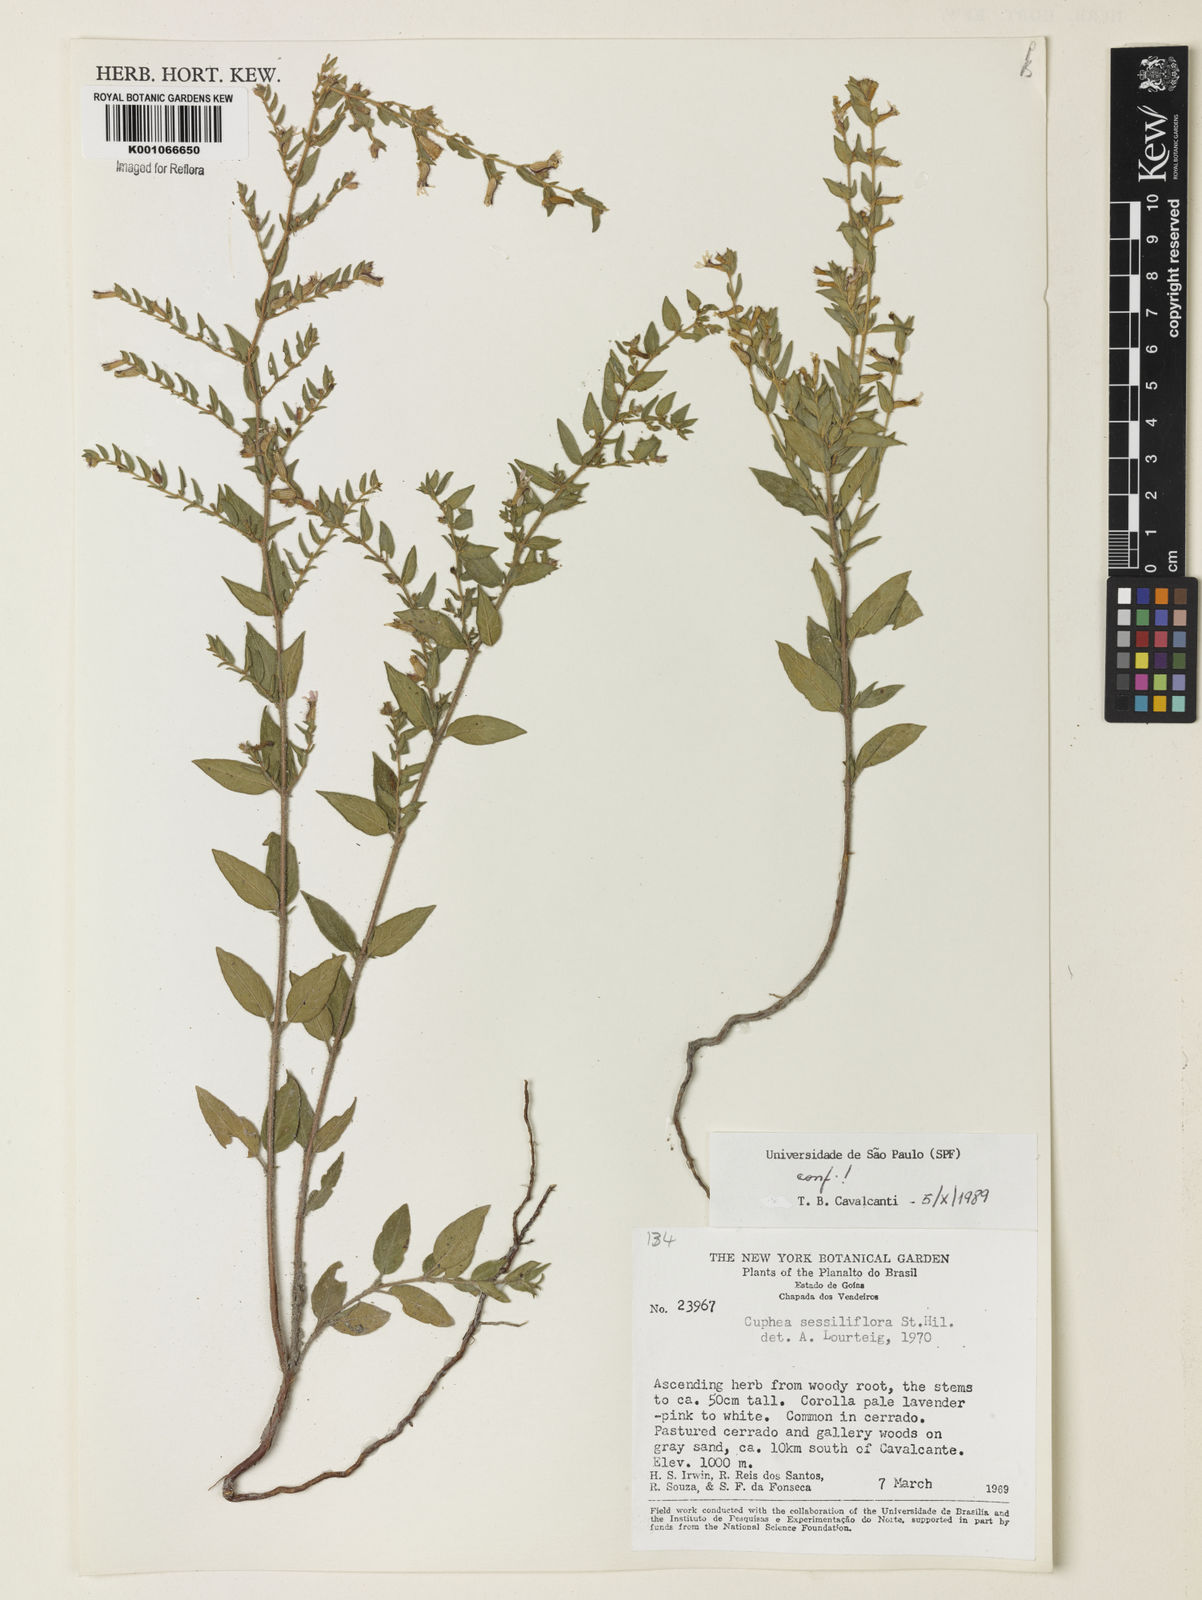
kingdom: Plantae
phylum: Tracheophyta
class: Magnoliopsida
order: Myrtales
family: Lythraceae
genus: Cuphea
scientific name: Cuphea sessiliflora
